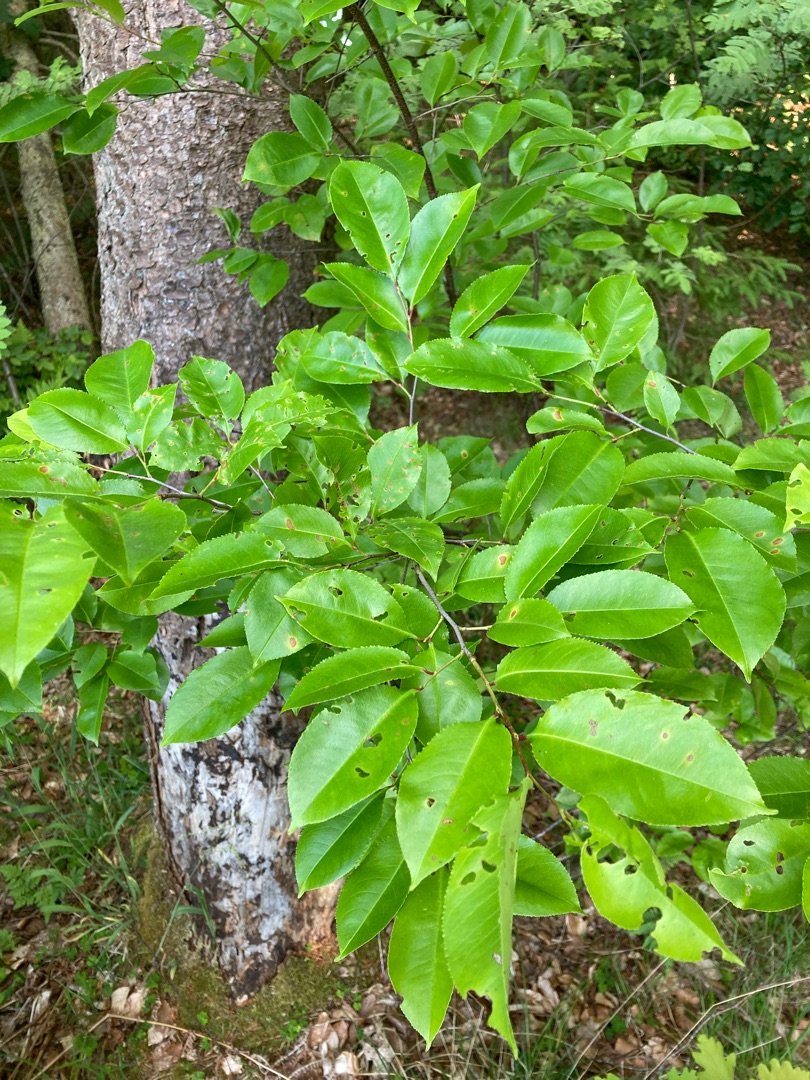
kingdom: Plantae
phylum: Tracheophyta
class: Magnoliopsida
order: Rosales
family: Rosaceae
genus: Prunus
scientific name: Prunus serotina
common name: Glansbladet hæg
